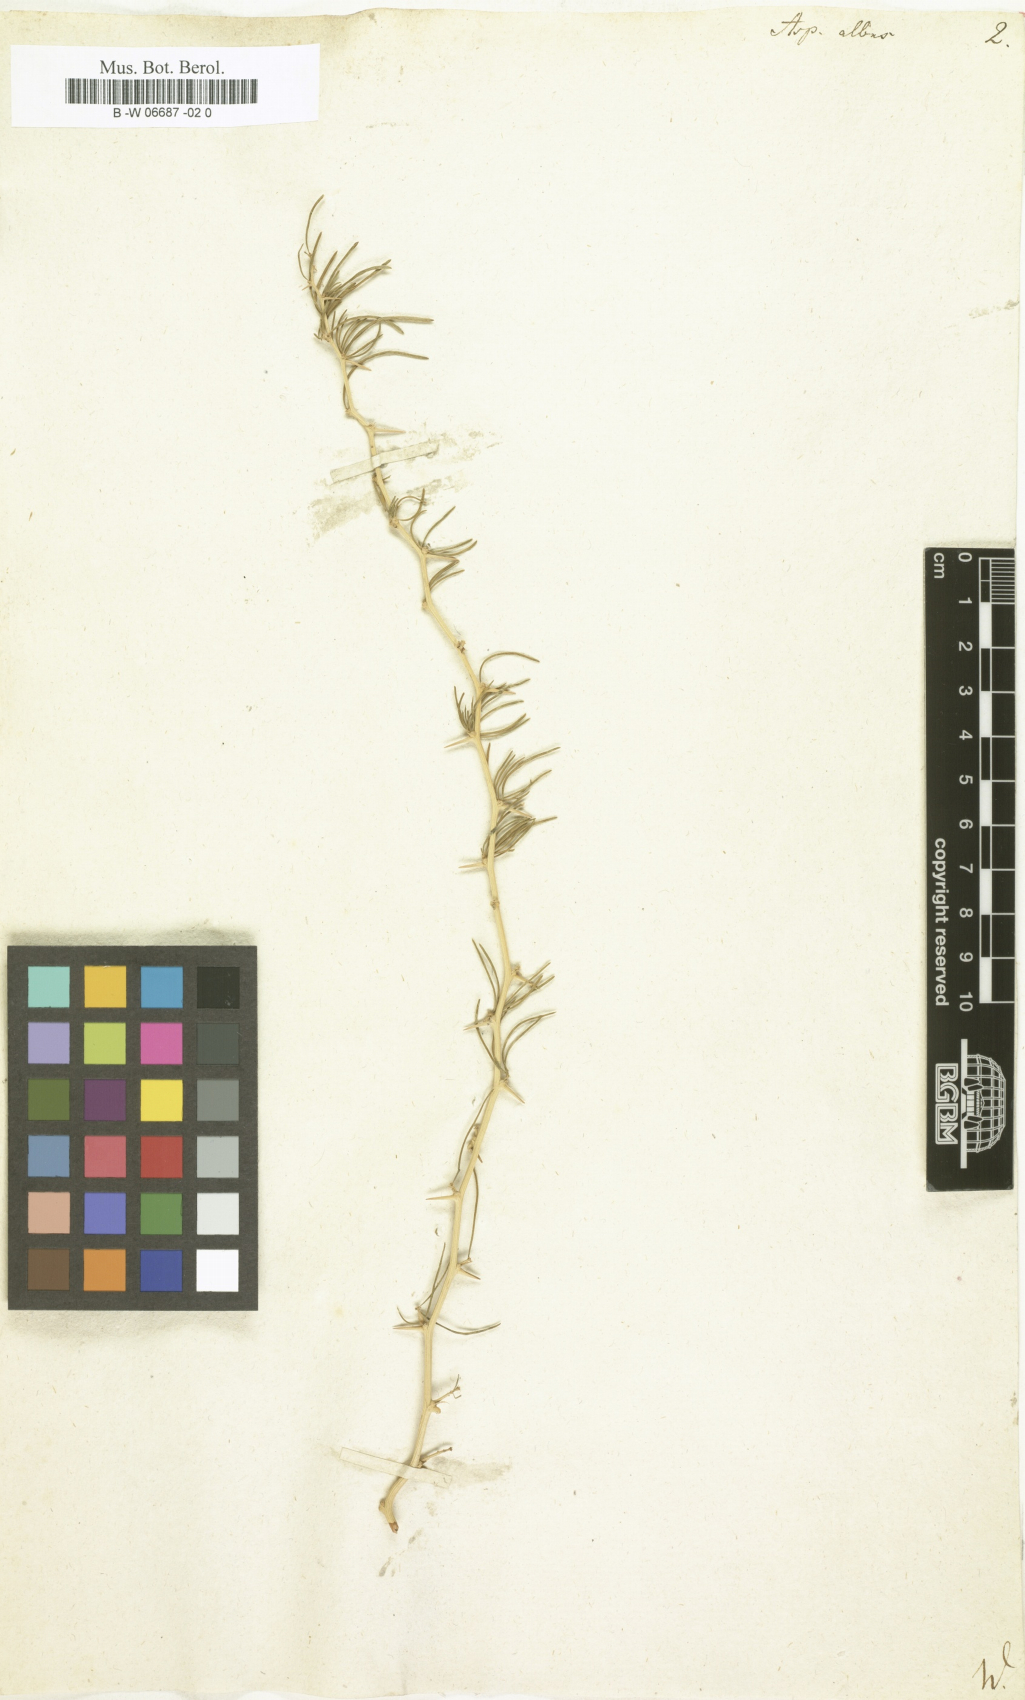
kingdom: Plantae
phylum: Tracheophyta
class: Liliopsida
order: Asparagales
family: Asparagaceae
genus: Asparagus
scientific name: Asparagus albus
